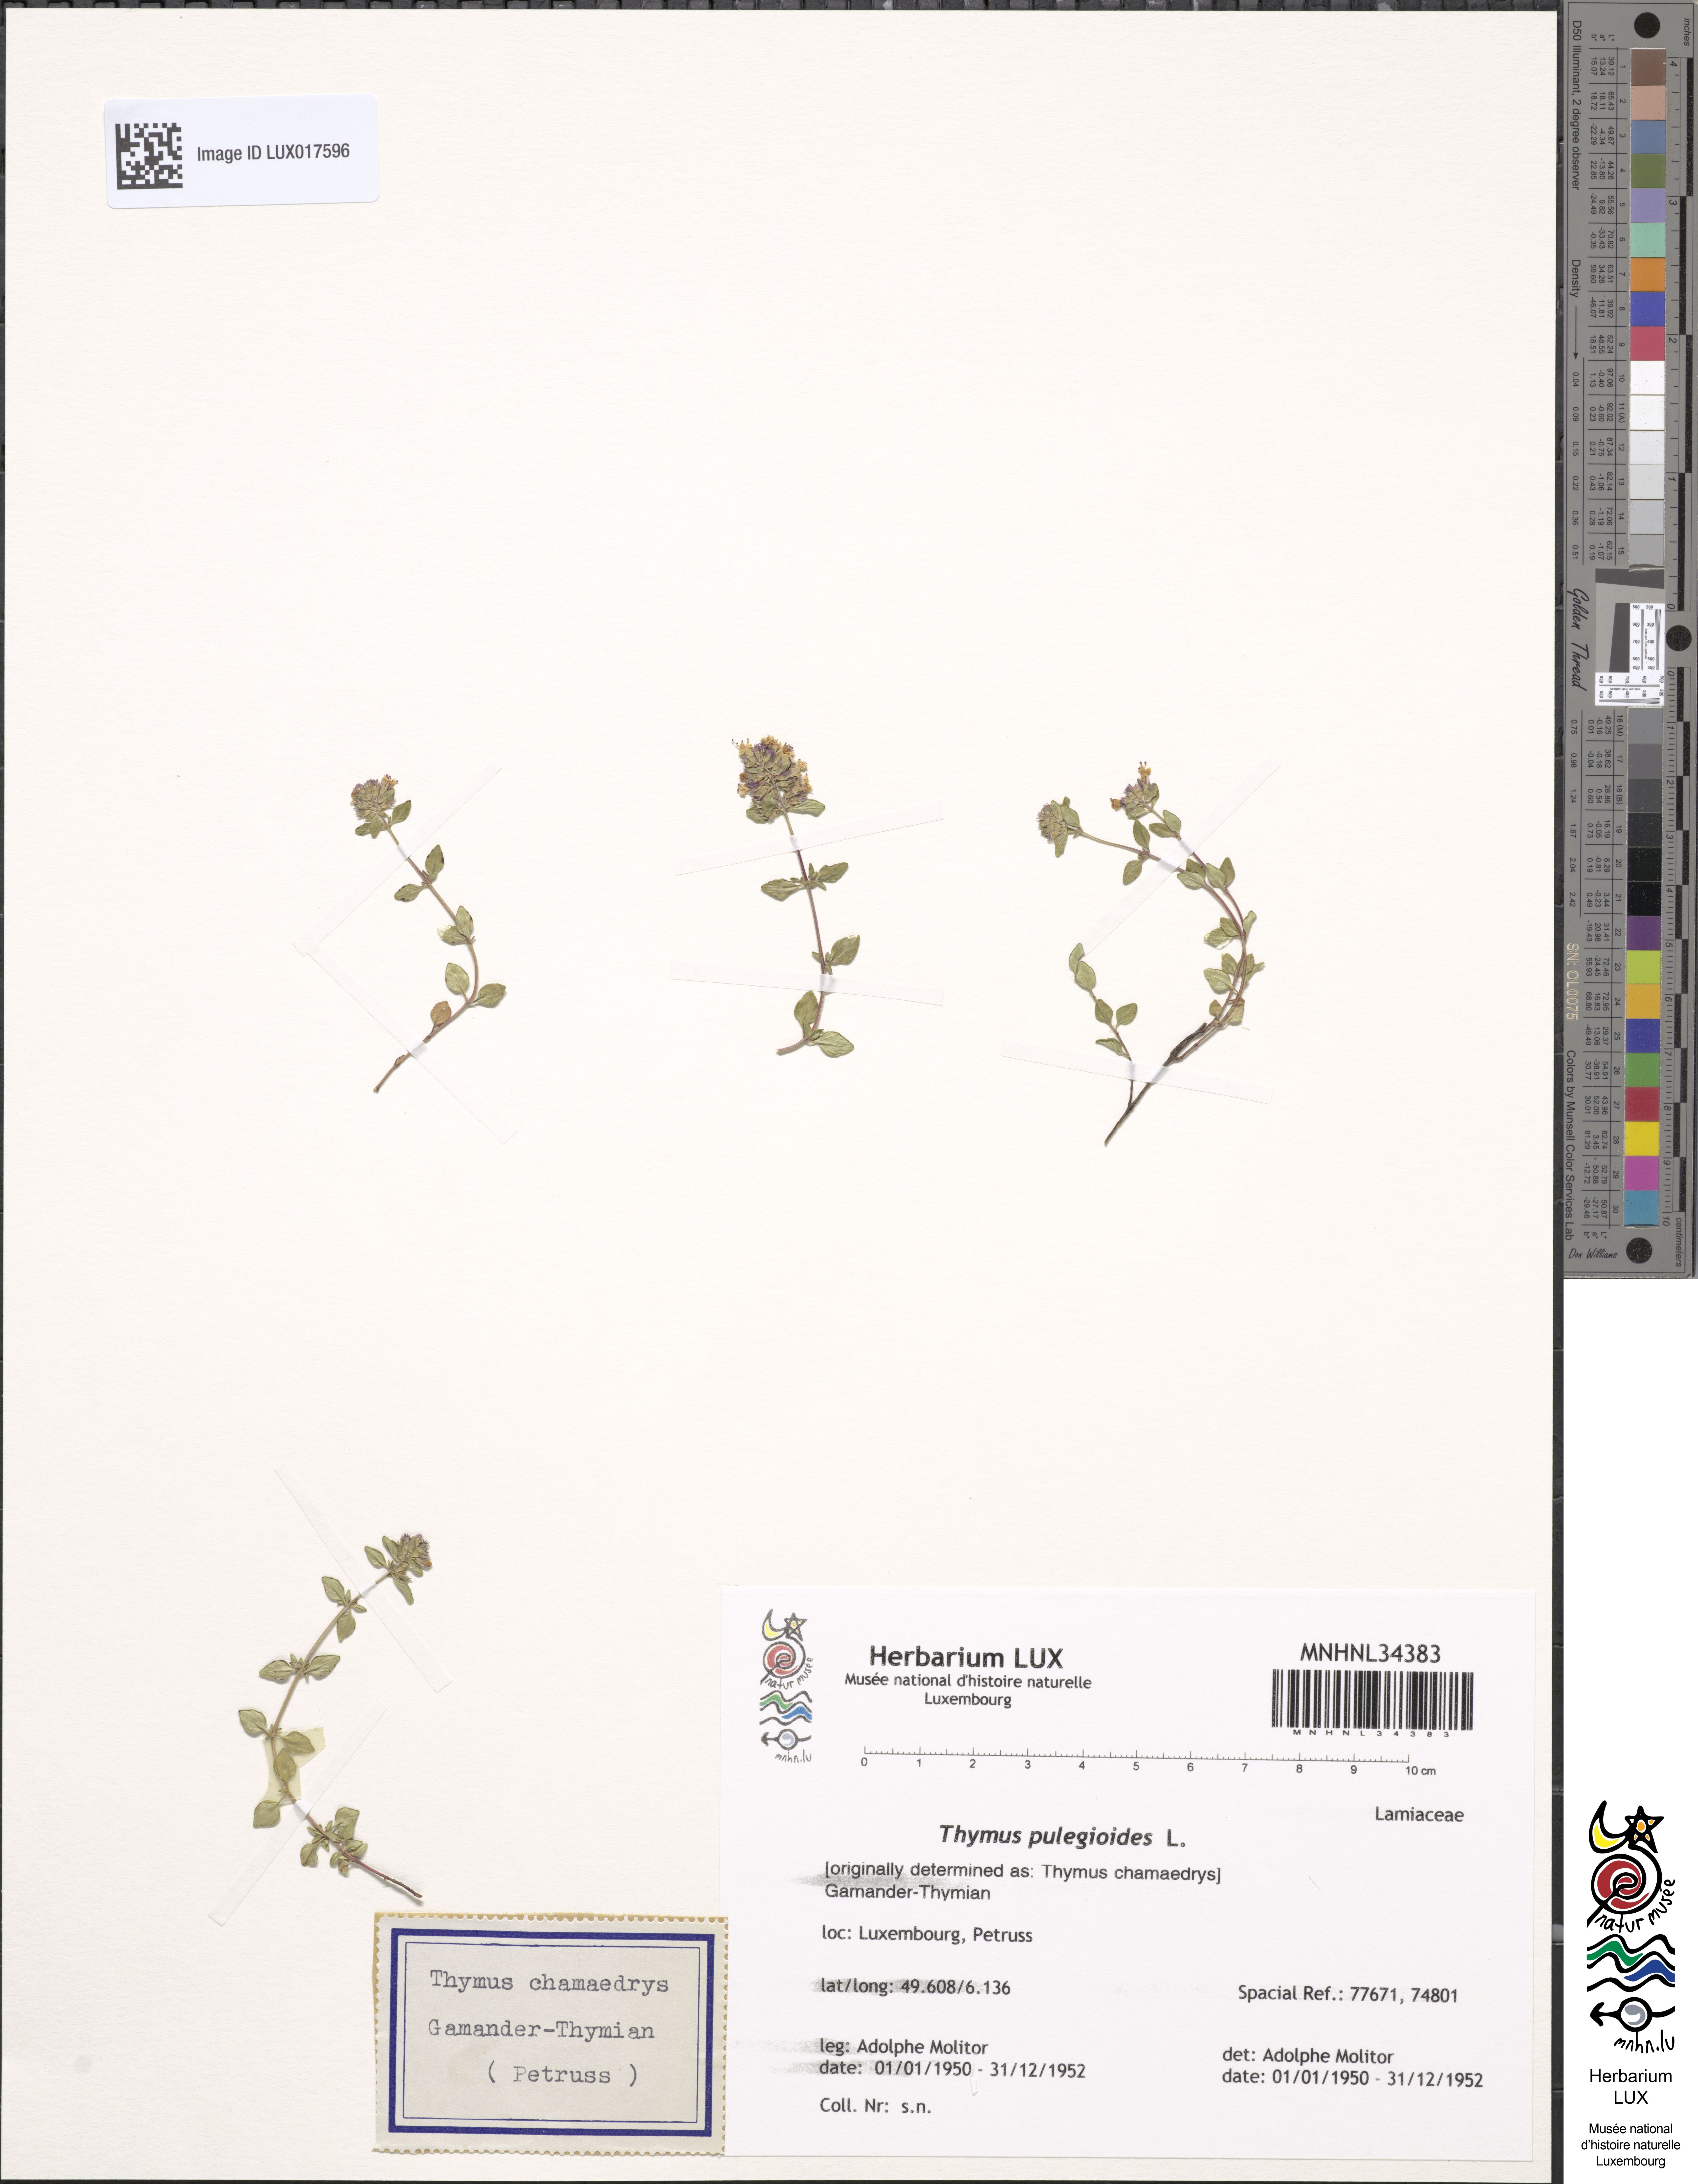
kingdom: Plantae
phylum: Tracheophyta
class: Magnoliopsida
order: Lamiales
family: Lamiaceae
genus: Thymus
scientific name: Thymus pulegioides
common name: Large thyme
